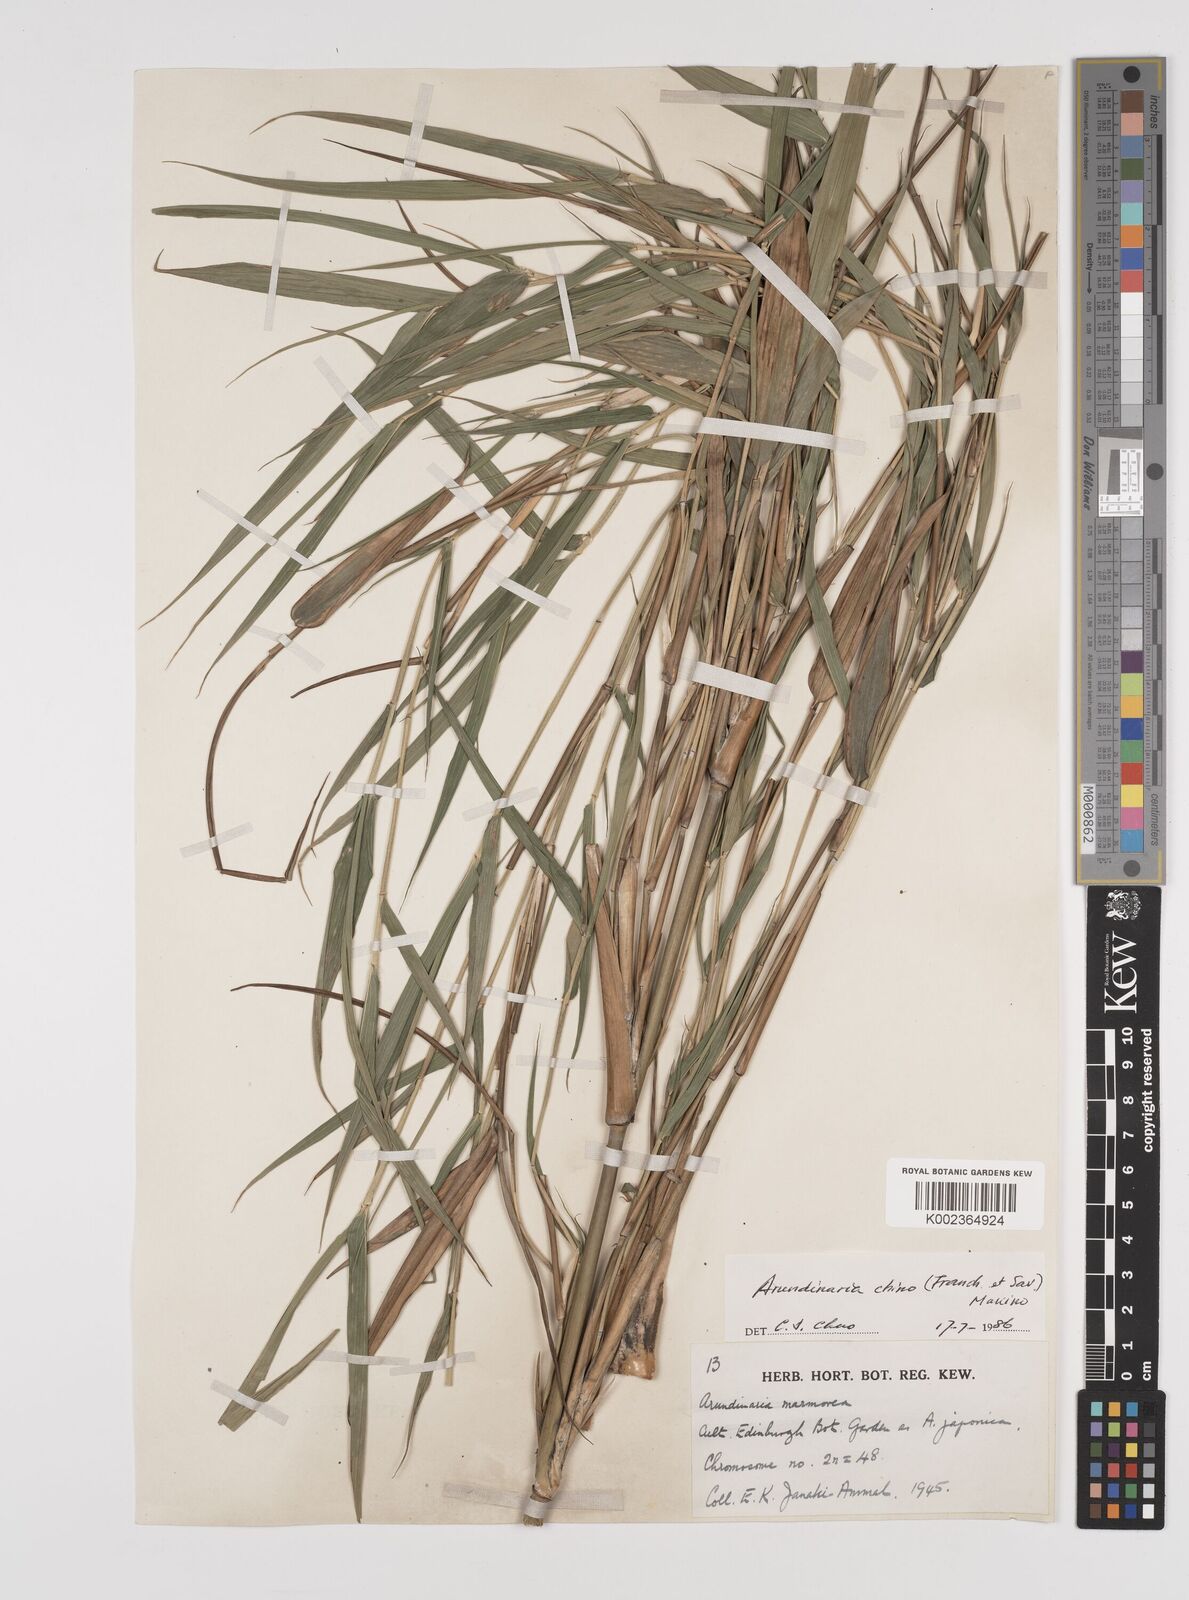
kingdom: Plantae
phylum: Tracheophyta
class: Liliopsida
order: Poales
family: Poaceae
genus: Pleioblastus
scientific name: Pleioblastus argenteostriatus
